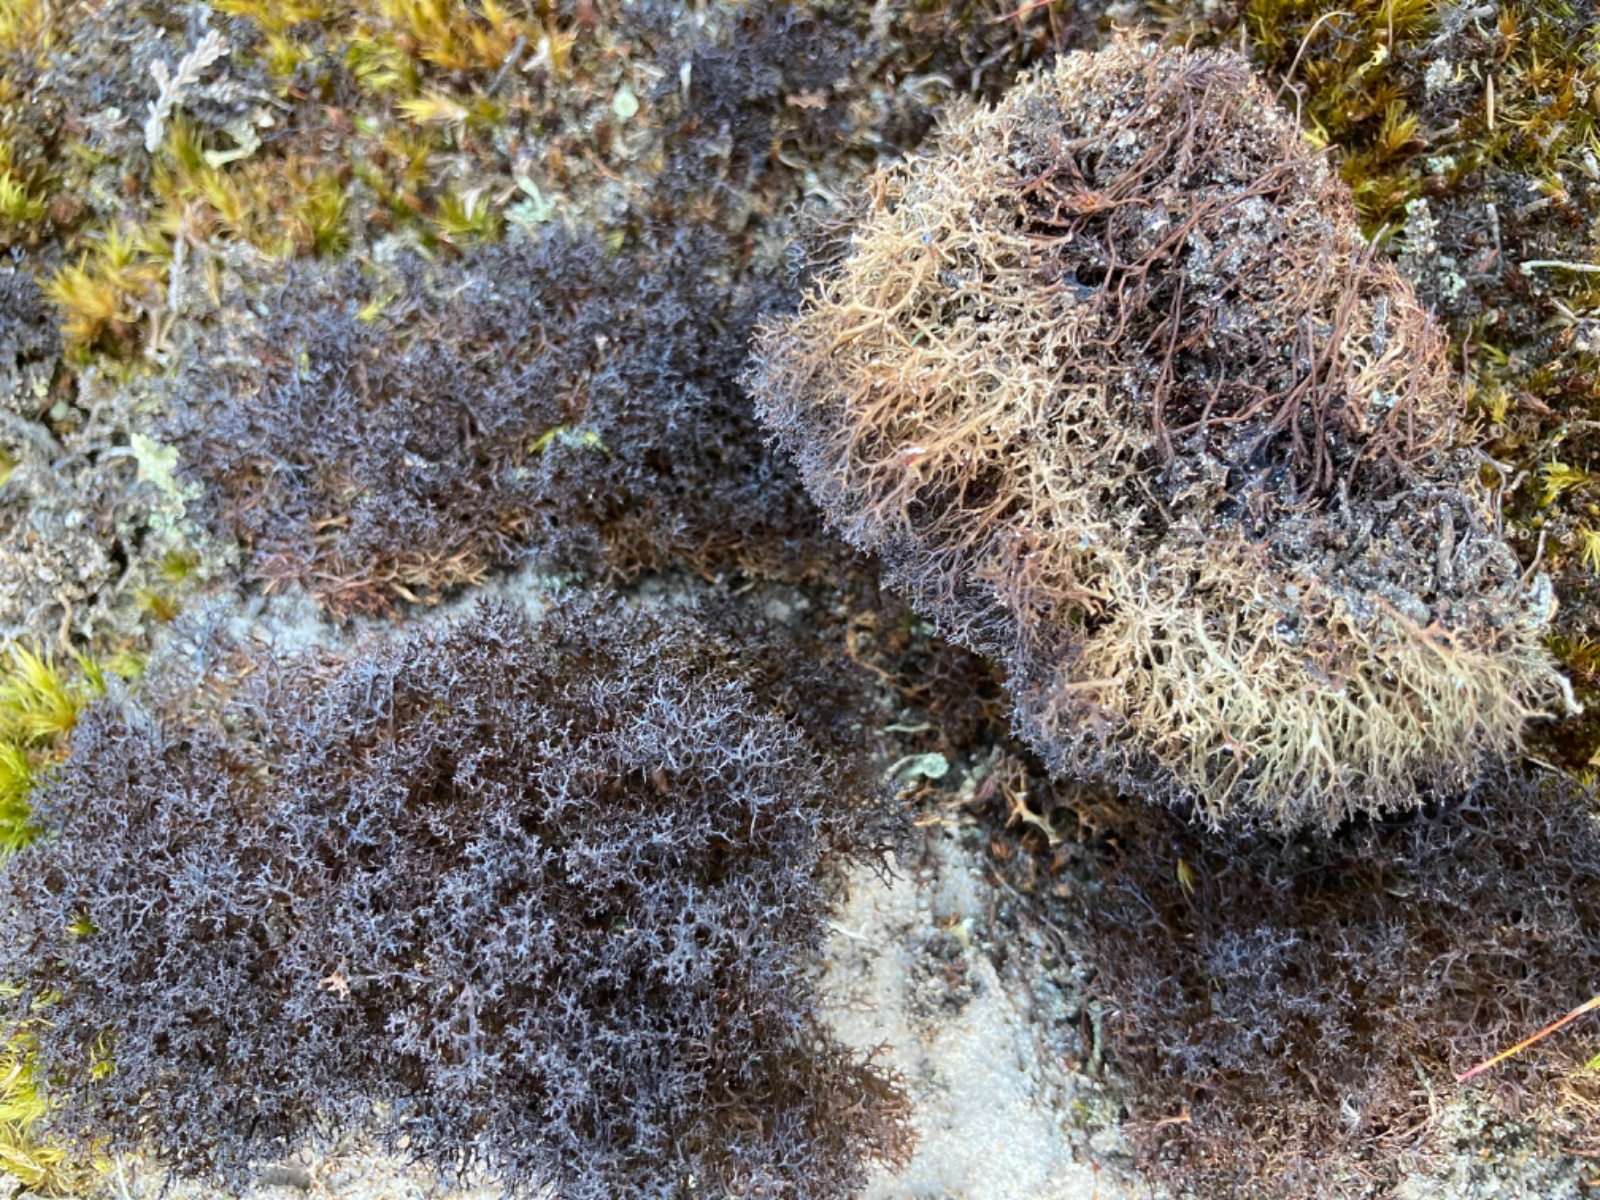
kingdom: Fungi
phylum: Ascomycota
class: Lecanoromycetes
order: Lecanorales
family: Parmeliaceae
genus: Cetraria
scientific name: Cetraria muricata
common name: tue-tjørnelav
